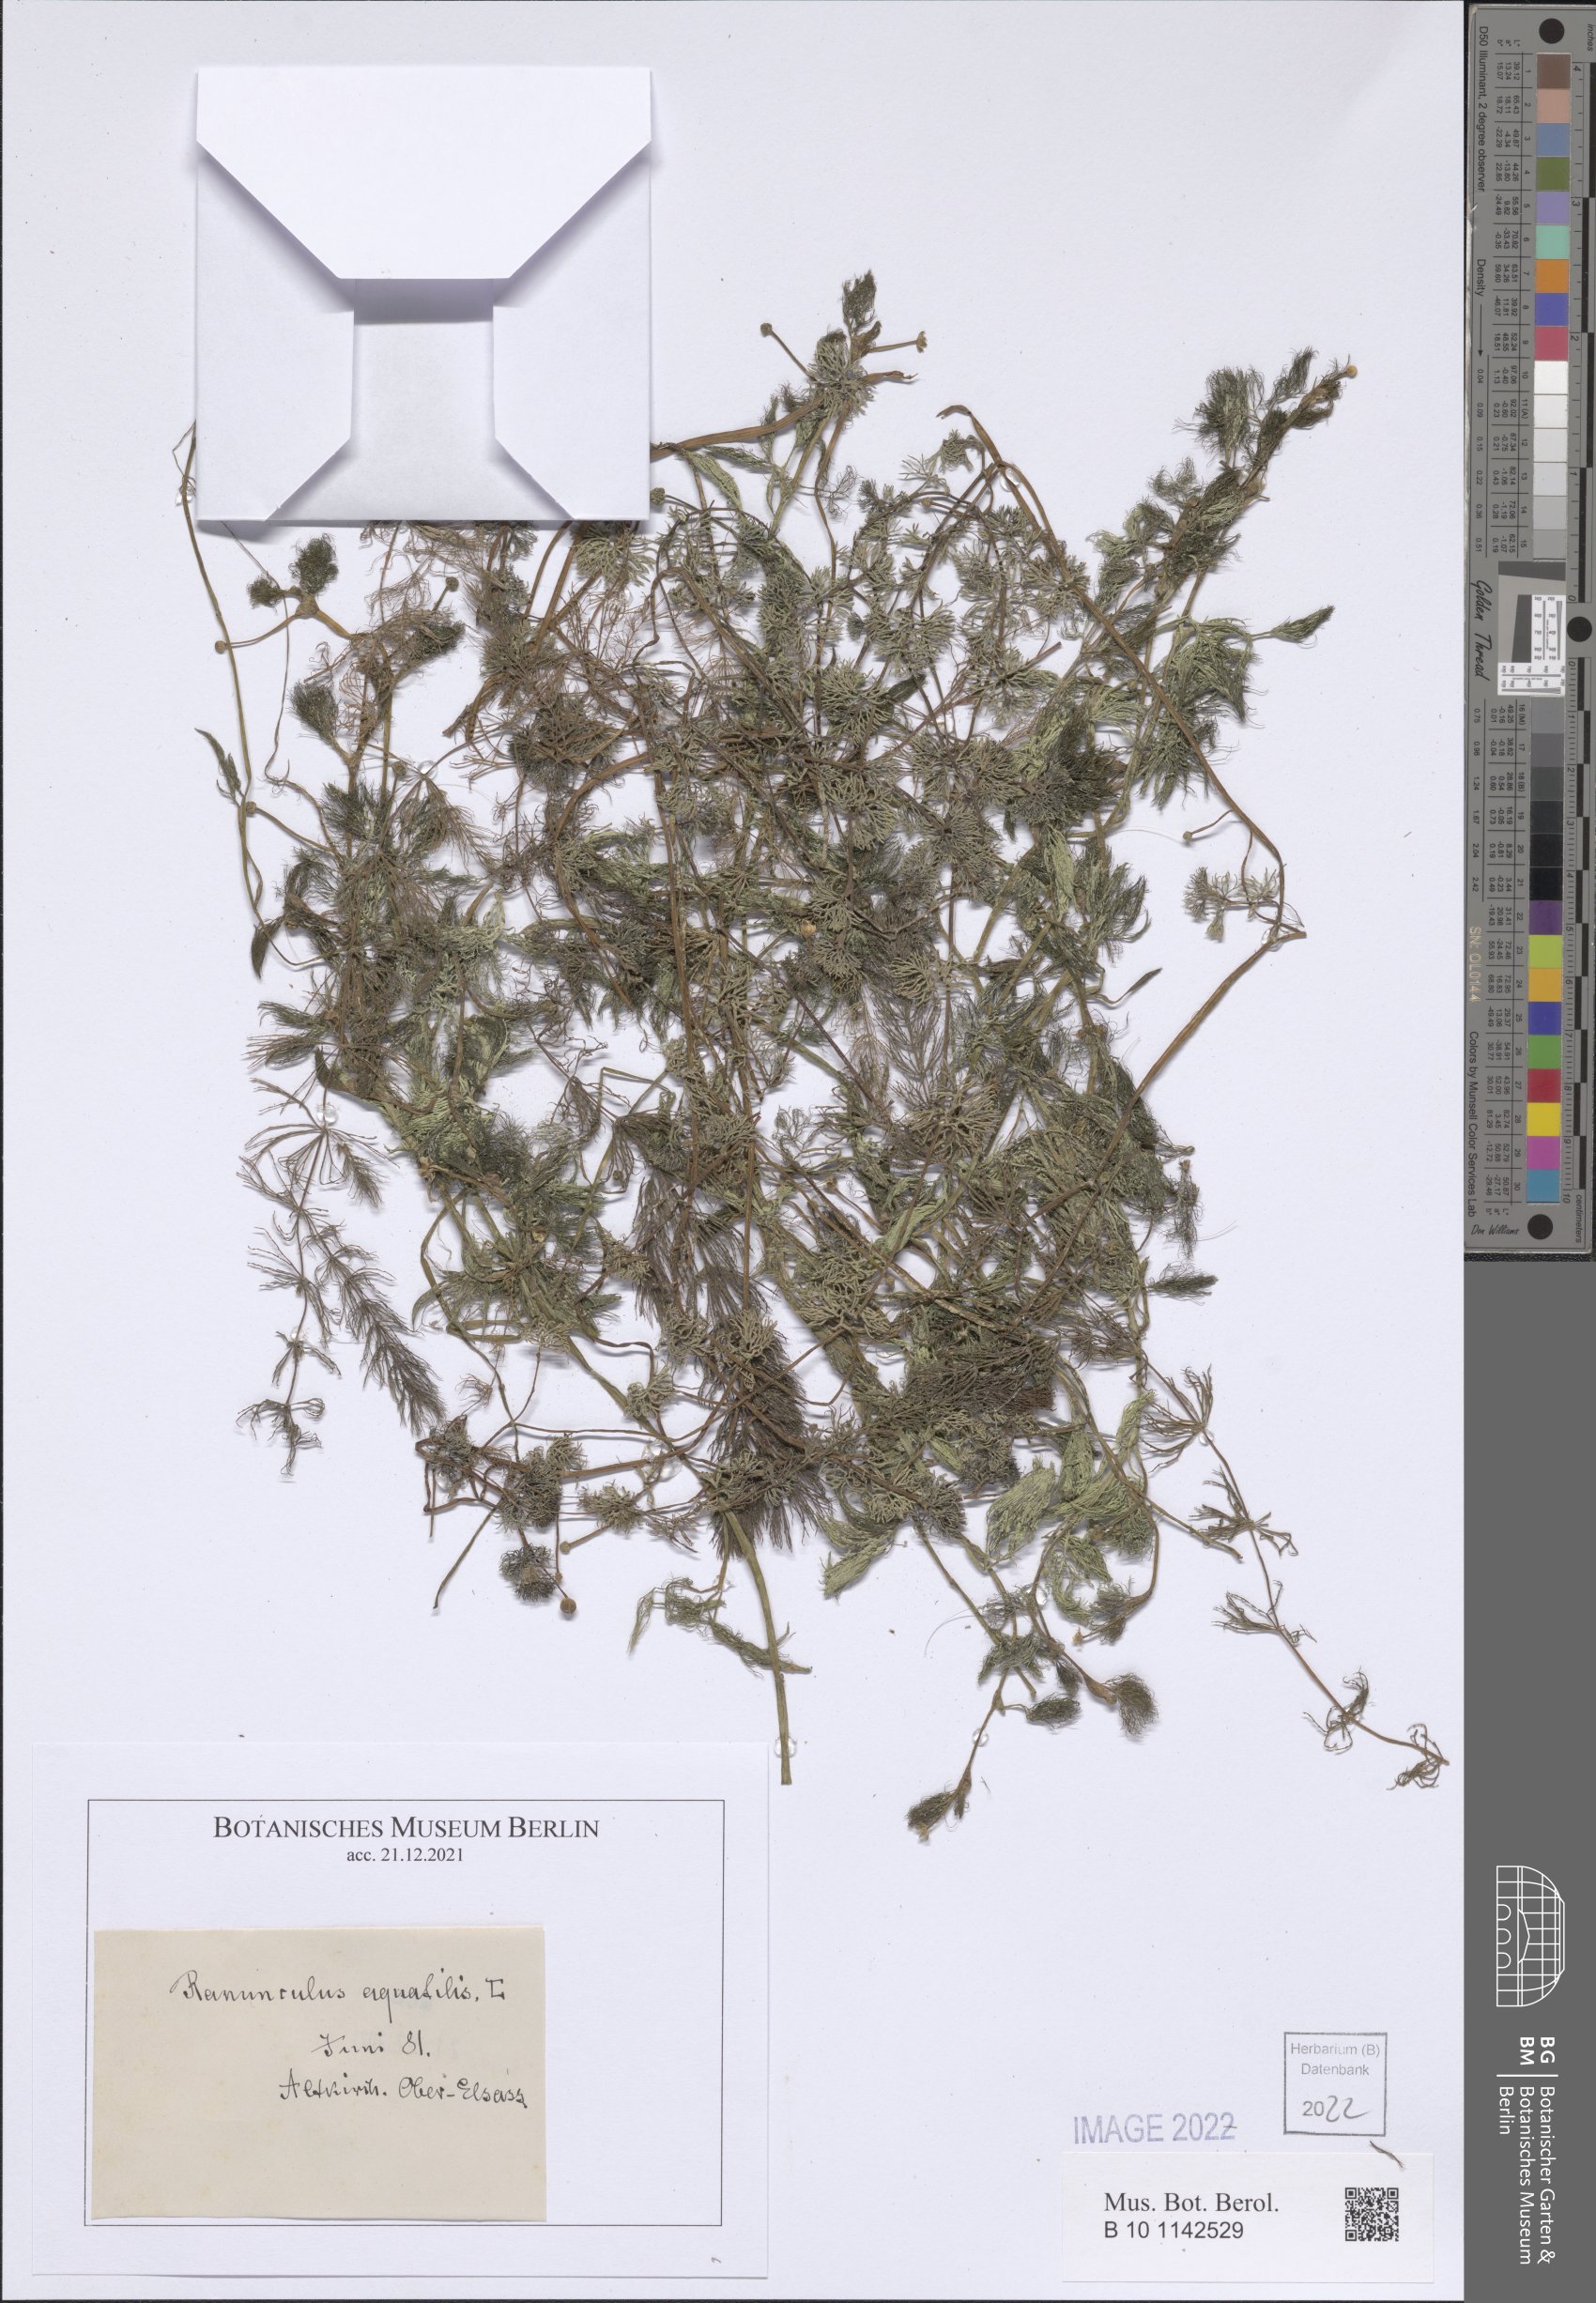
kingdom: Plantae
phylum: Tracheophyta
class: Magnoliopsida
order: Ranunculales
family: Ranunculaceae
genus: Ranunculus
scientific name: Ranunculus trichophyllus
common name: Thread-leaved water-crowfoot
